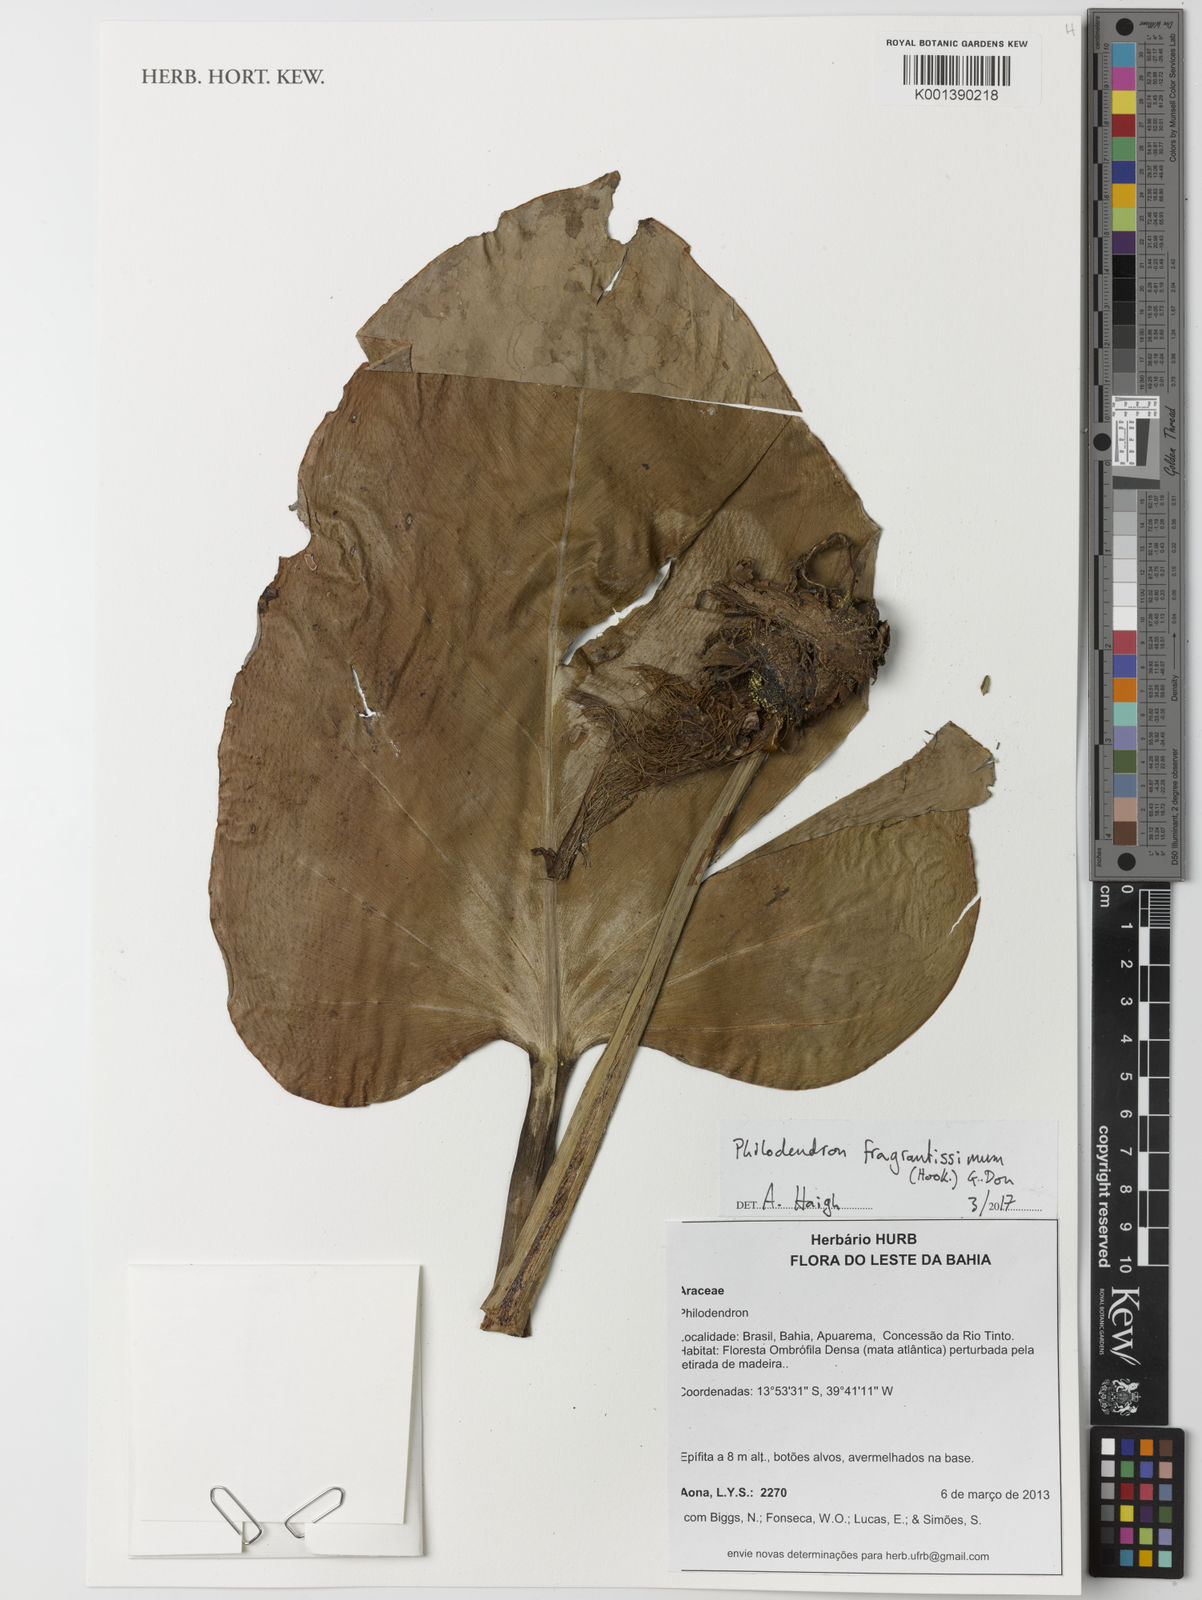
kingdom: Plantae
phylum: Tracheophyta
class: Liliopsida
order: Alismatales
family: Araceae
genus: Philodendron
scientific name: Philodendron fragrantissimum
